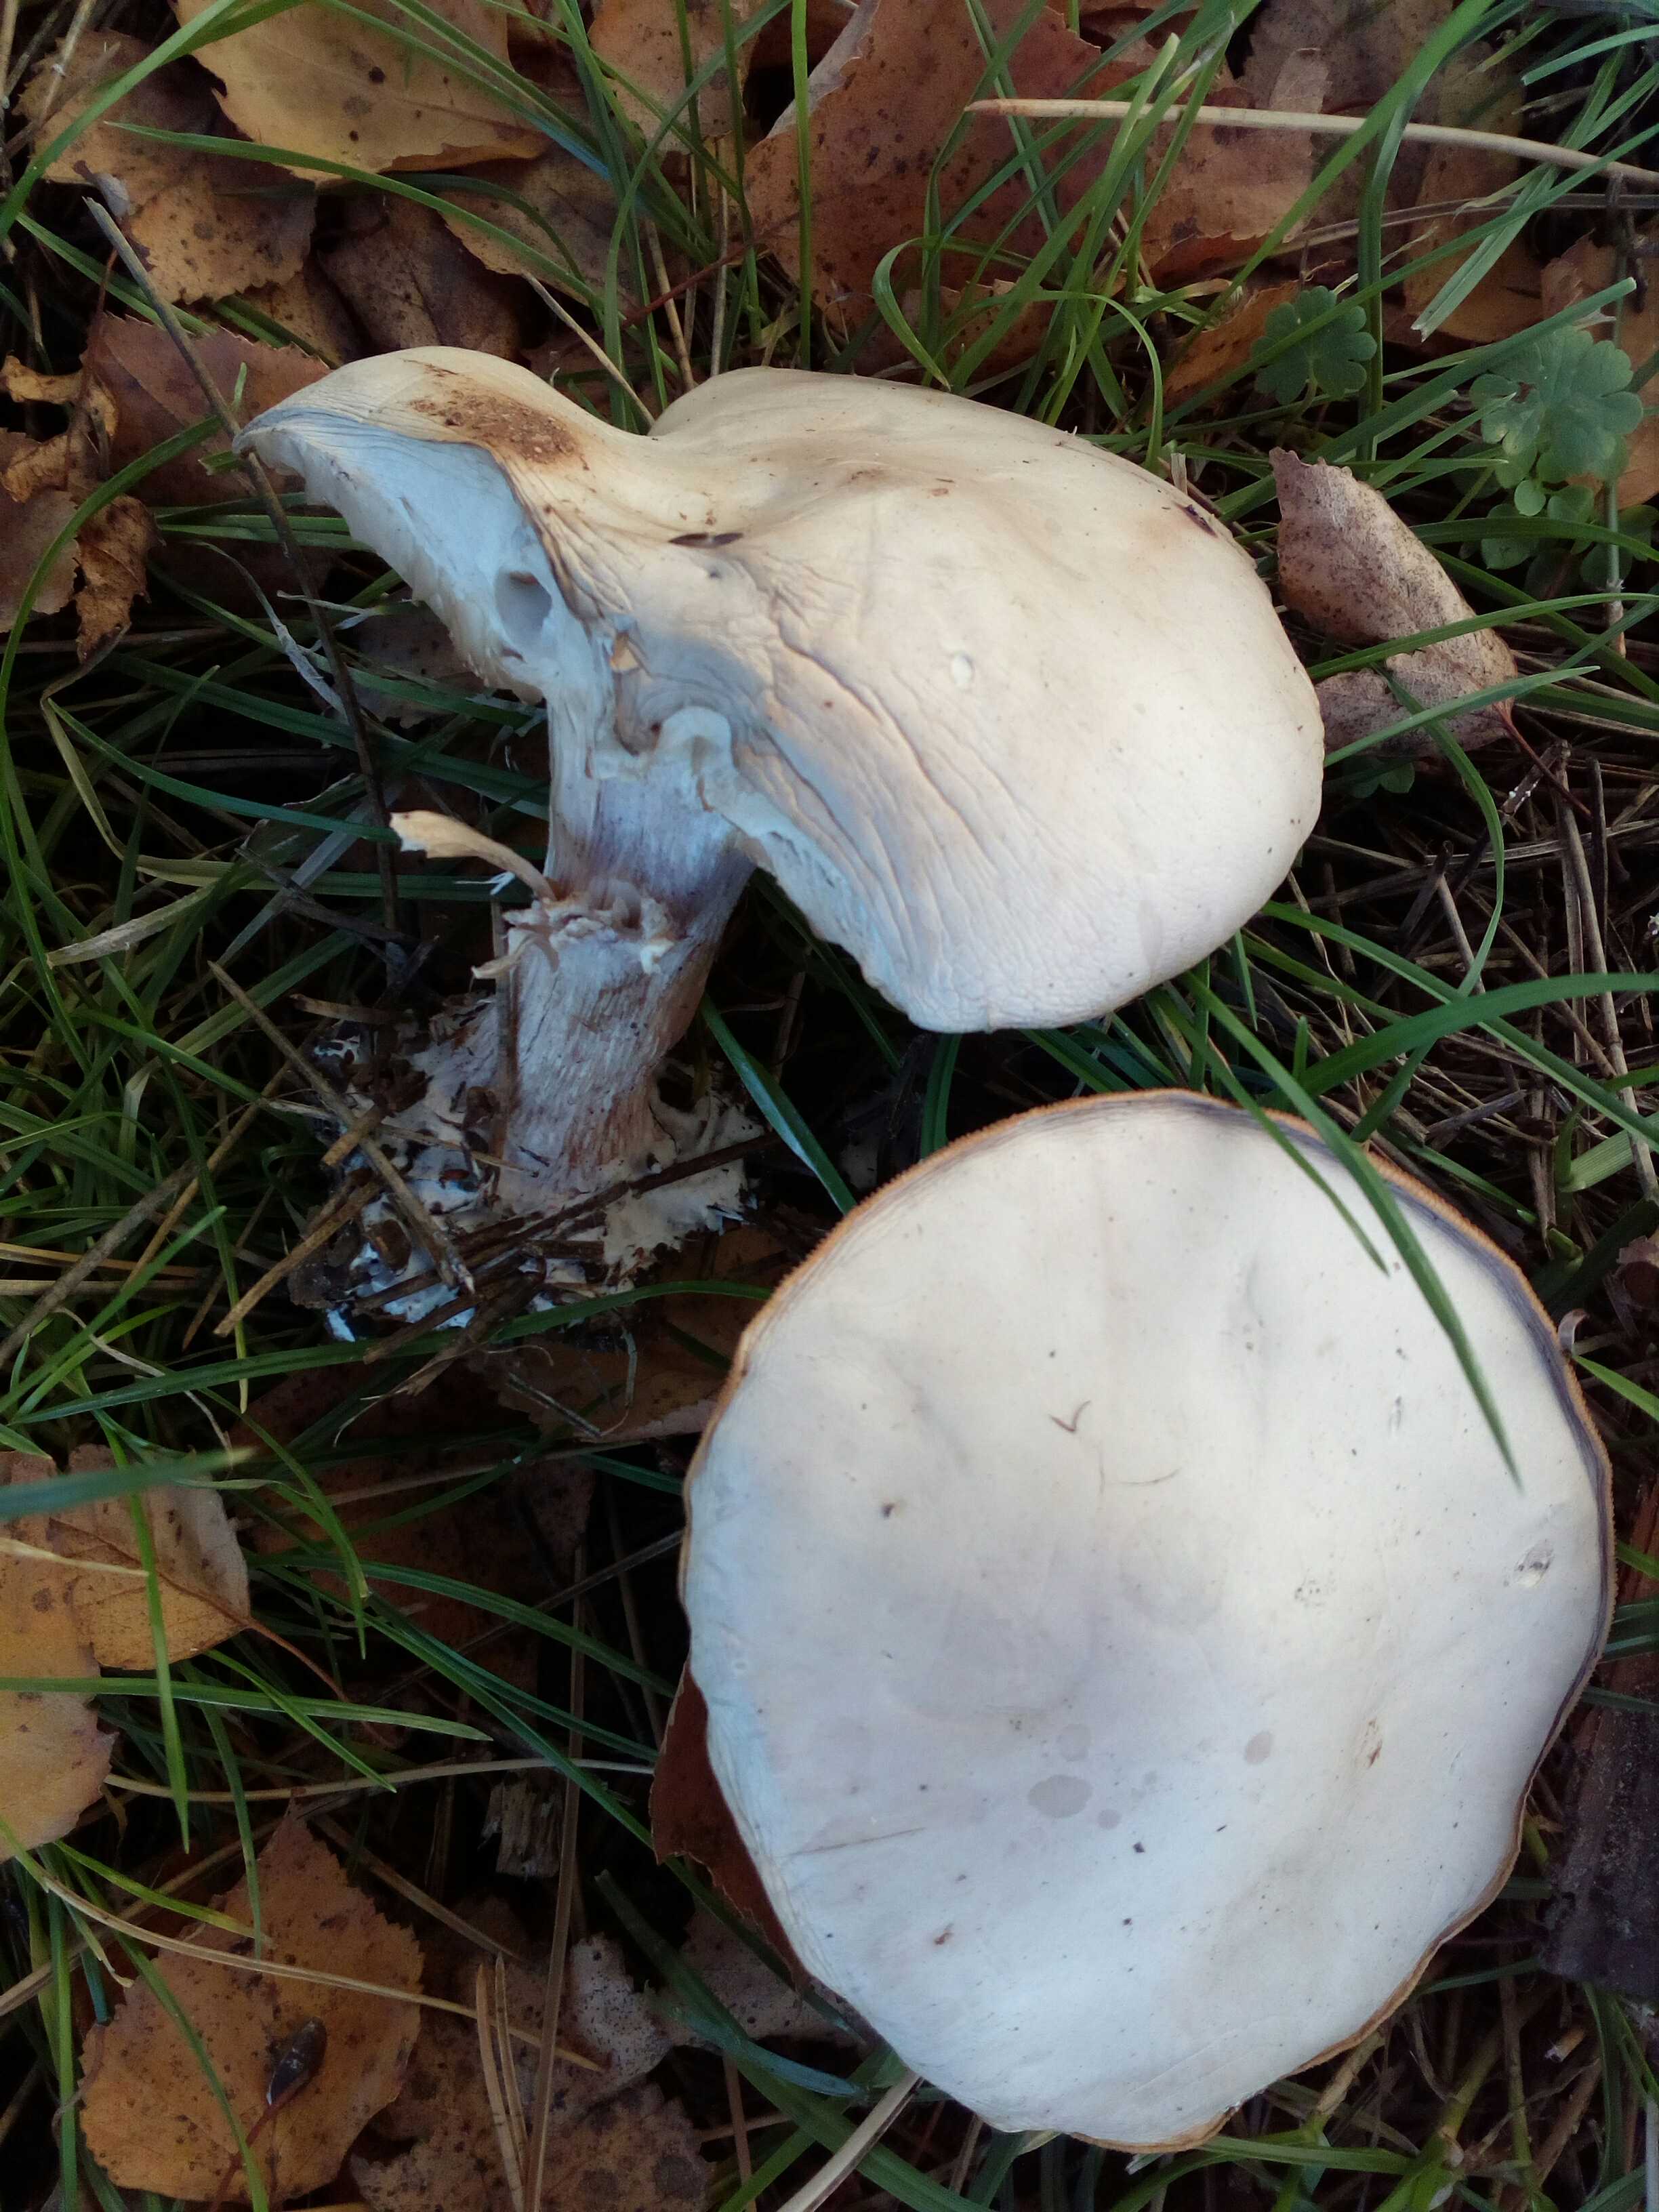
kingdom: Fungi
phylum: Basidiomycota
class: Agaricomycetes
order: Agaricales
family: Tricholomataceae
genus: Lepista
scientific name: Lepista personata
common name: bleg hekseringshat
